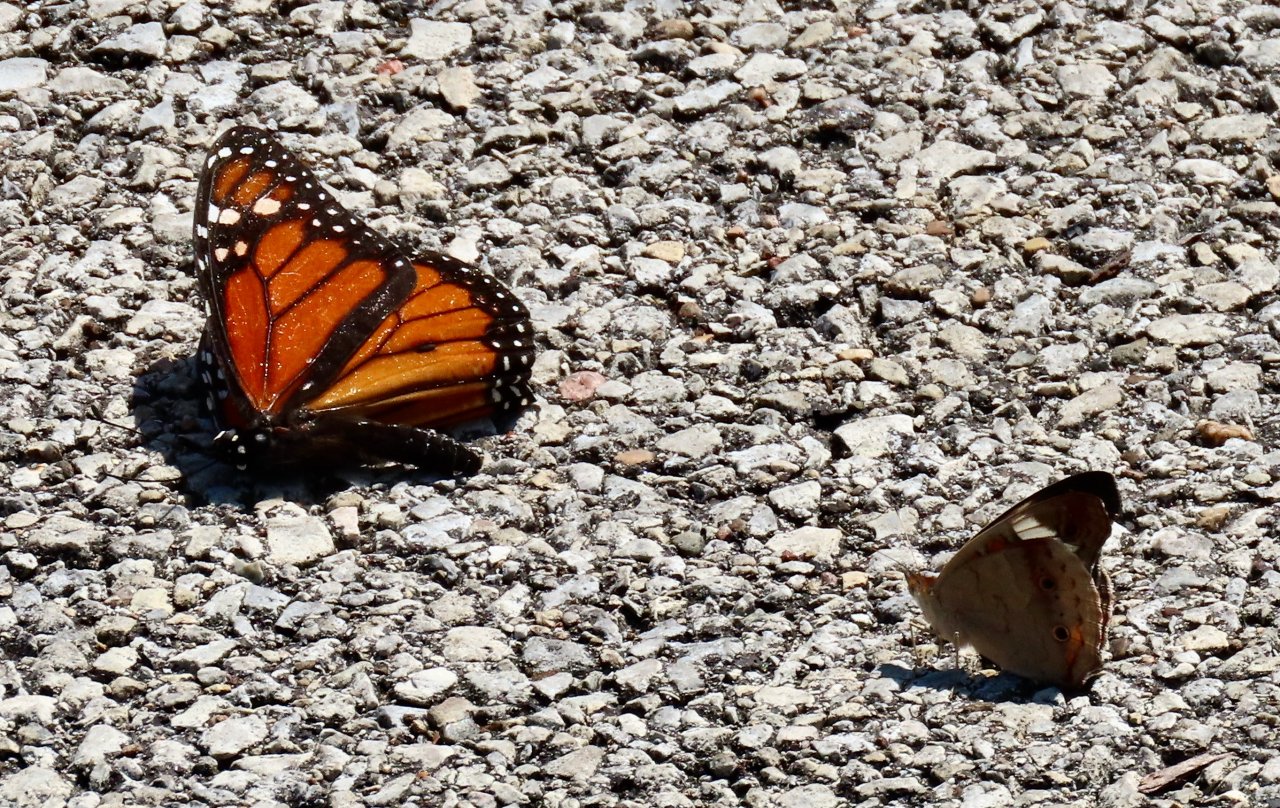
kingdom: Animalia
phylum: Arthropoda
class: Insecta
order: Lepidoptera
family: Nymphalidae
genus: Danaus
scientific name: Danaus plexippus
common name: Monarch
